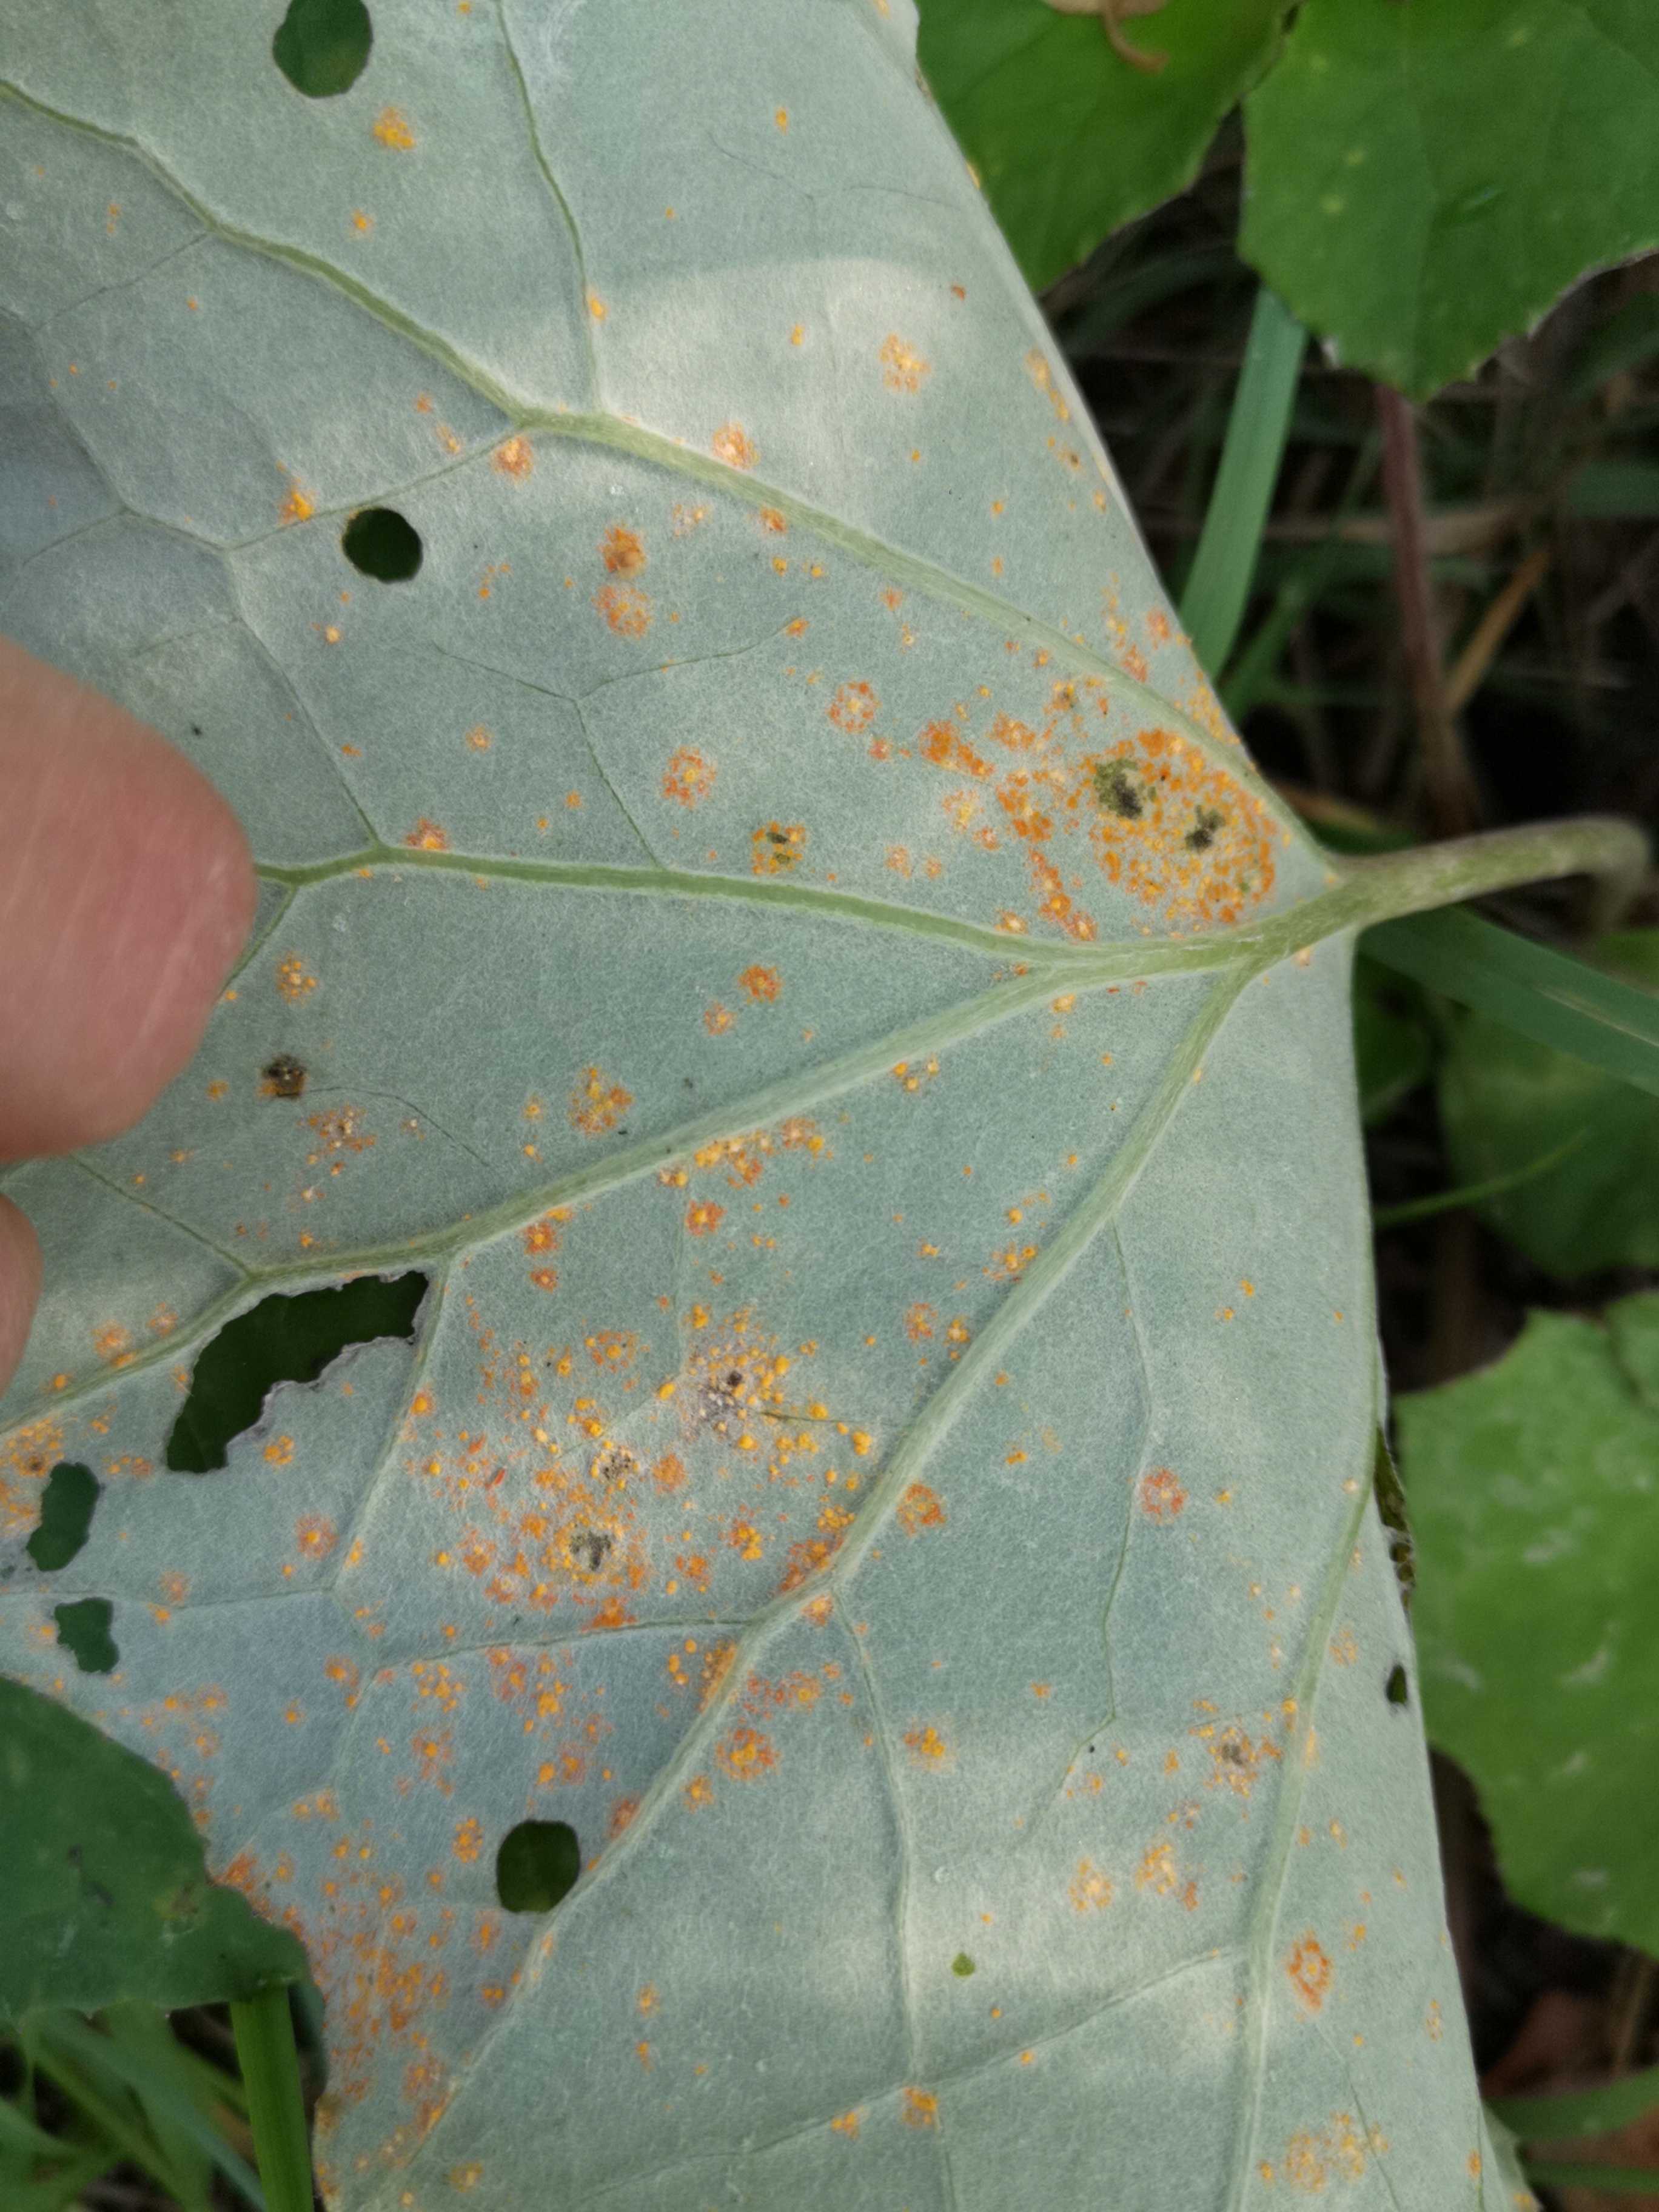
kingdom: Fungi
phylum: Basidiomycota
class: Pucciniomycetes
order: Pucciniales
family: Coleosporiaceae
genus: Coleosporium
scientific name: Coleosporium tussilaginis
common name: almindelig fyrrenålerust
